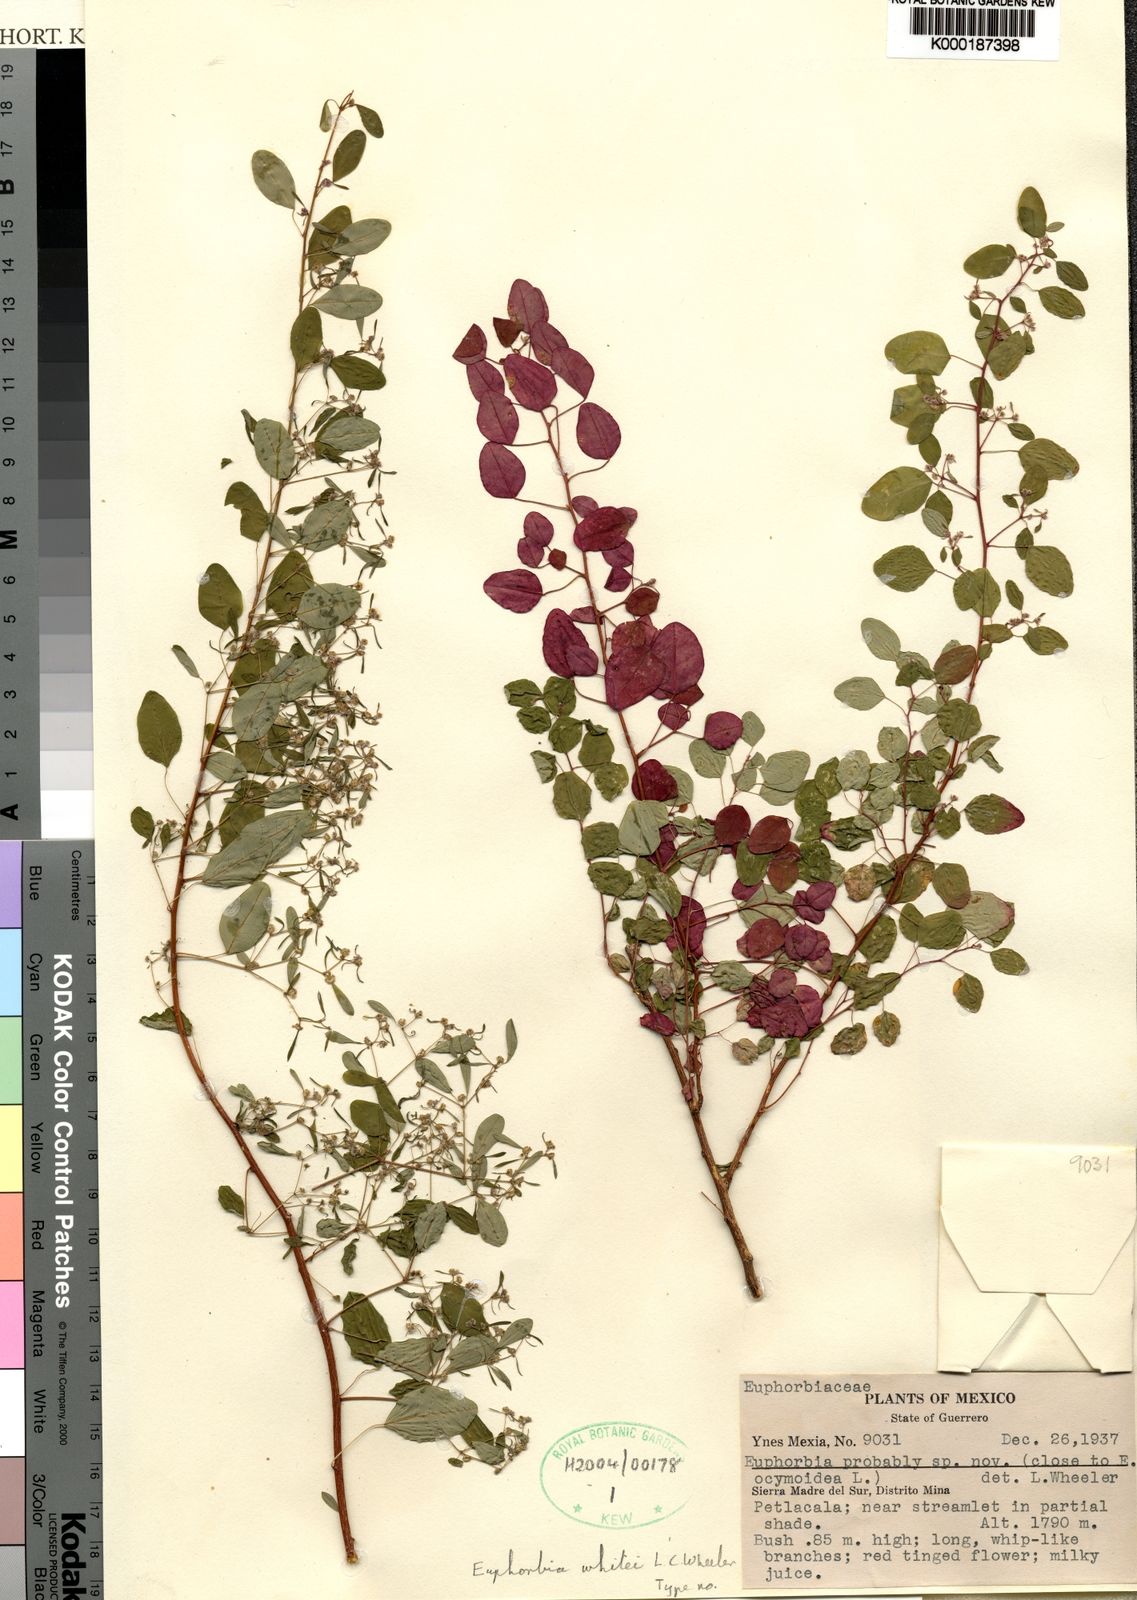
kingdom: Plantae
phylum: Tracheophyta
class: Magnoliopsida
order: Malpighiales
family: Euphorbiaceae
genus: Euphorbia
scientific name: Euphorbia whitei
